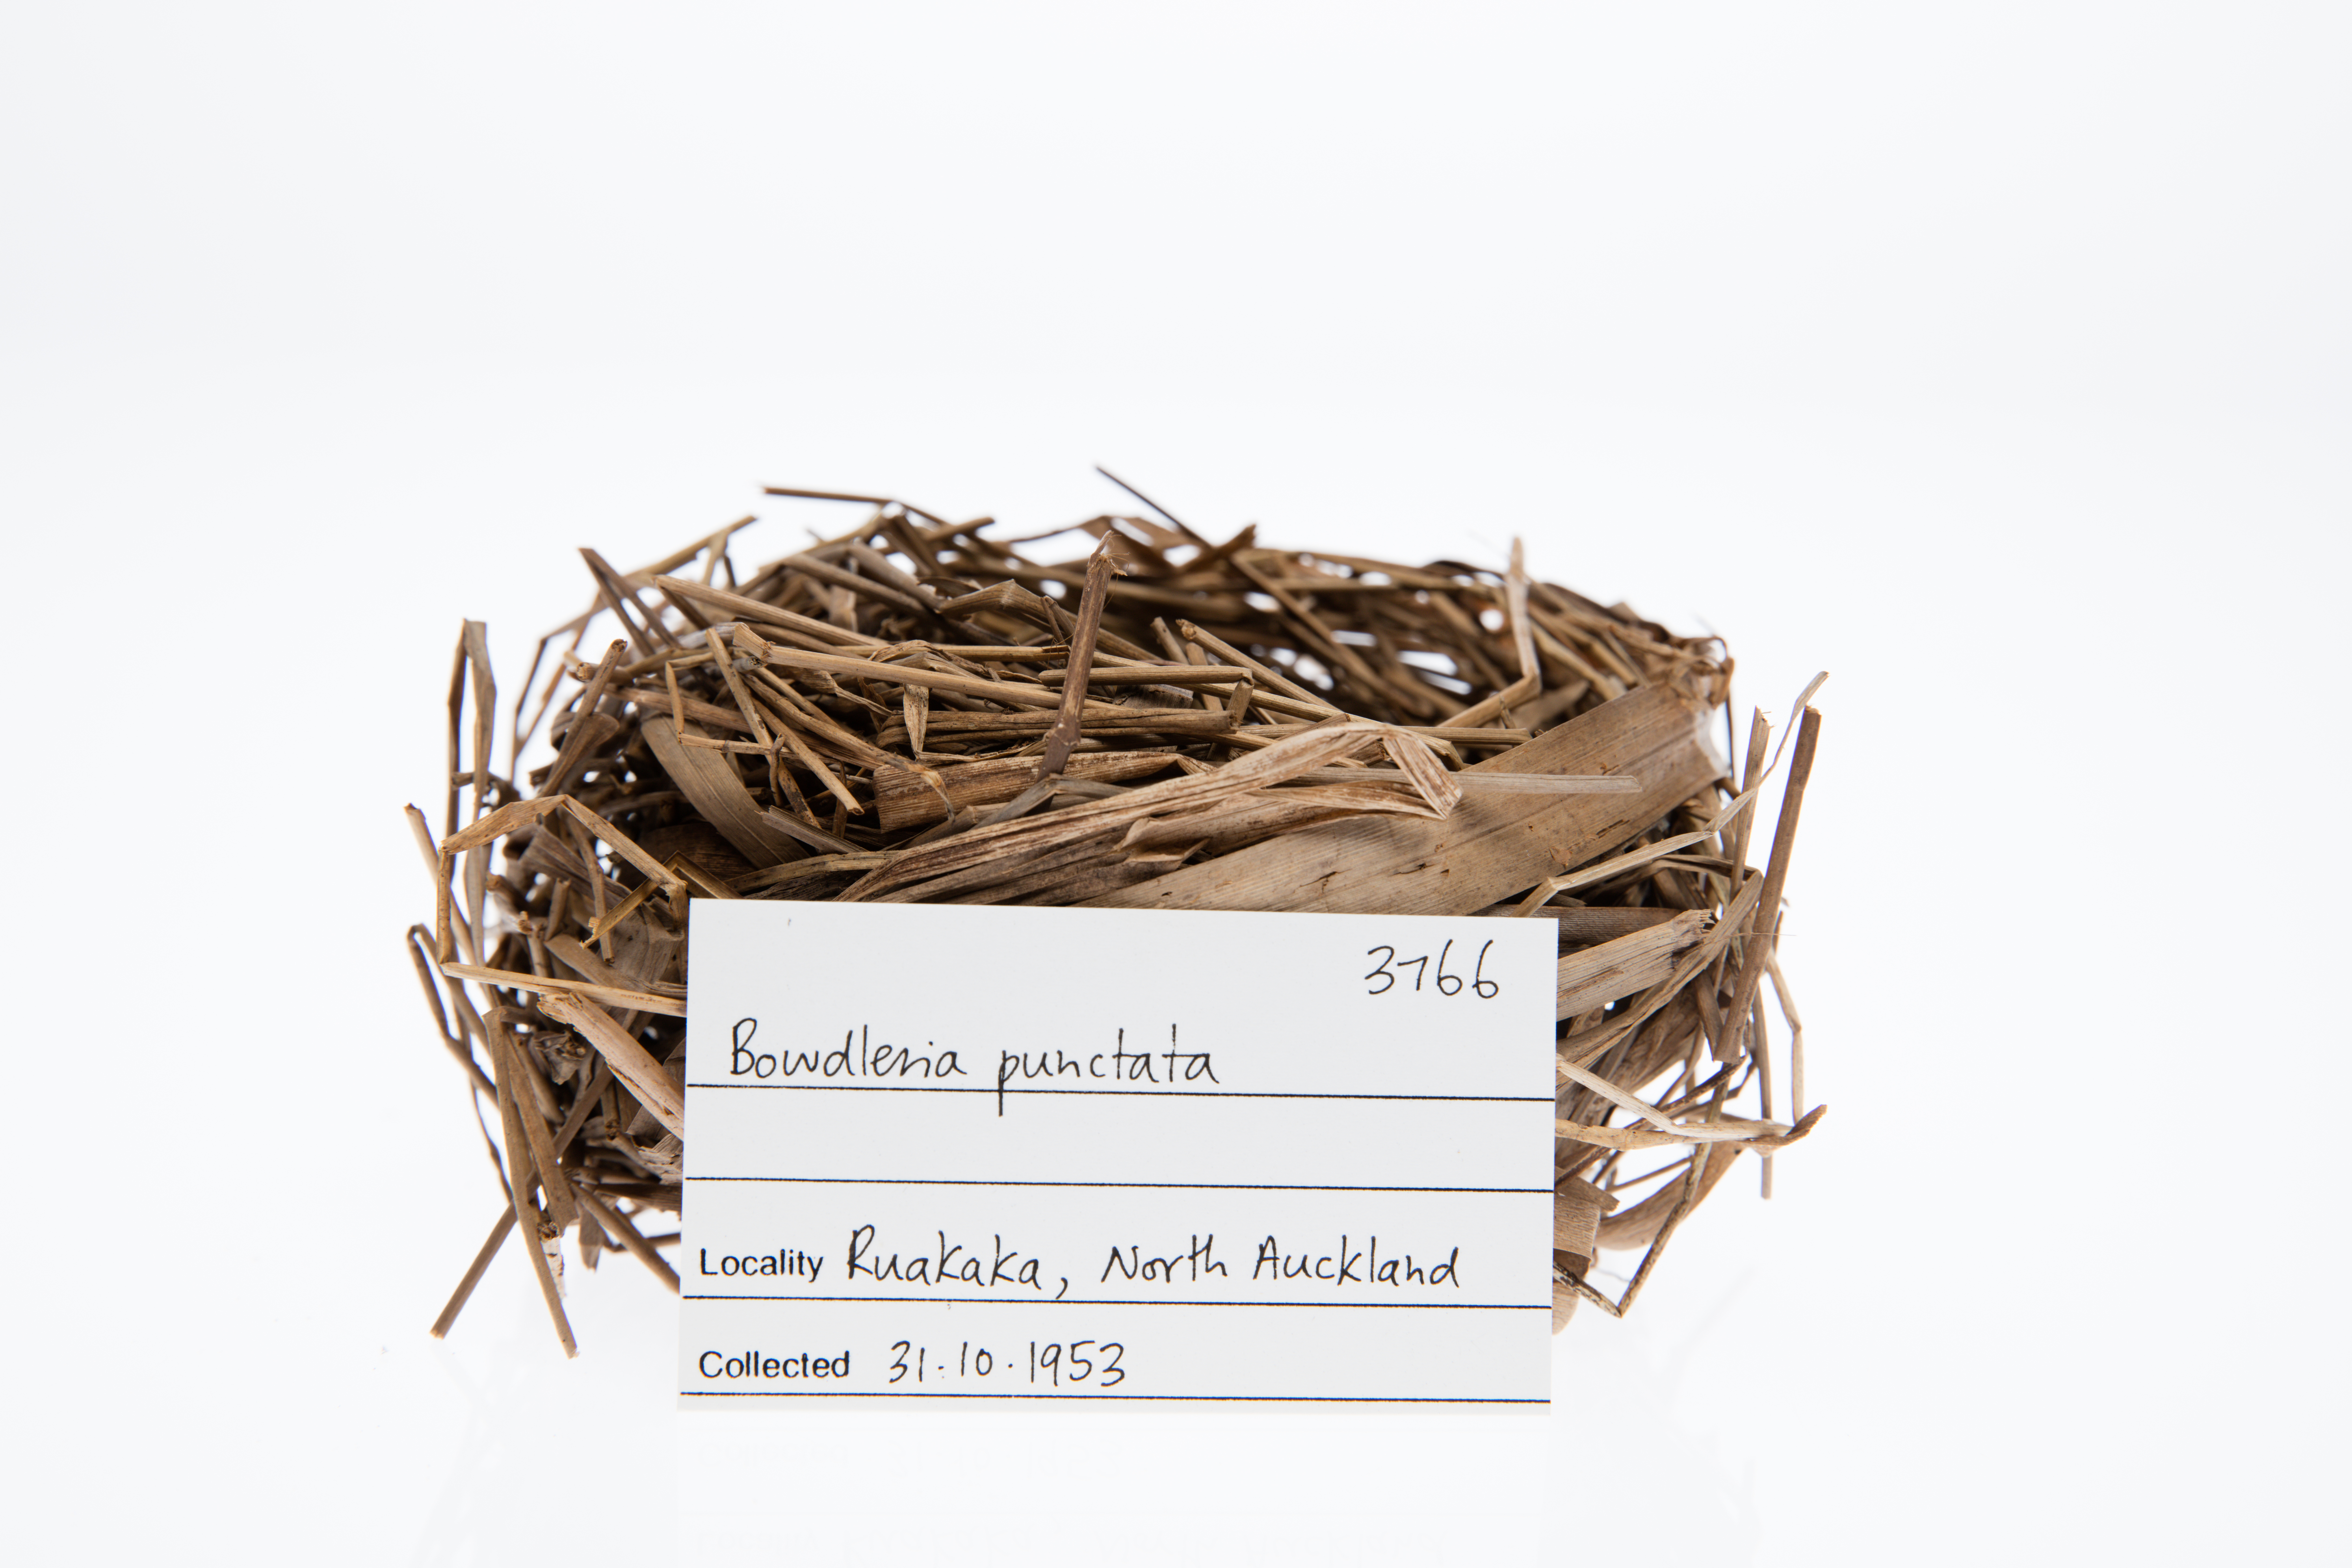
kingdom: Animalia
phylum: Chordata
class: Aves
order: Passeriformes
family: Locustellidae
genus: Megalurus
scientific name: Megalurus punctatus
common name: New zealand fernbird
